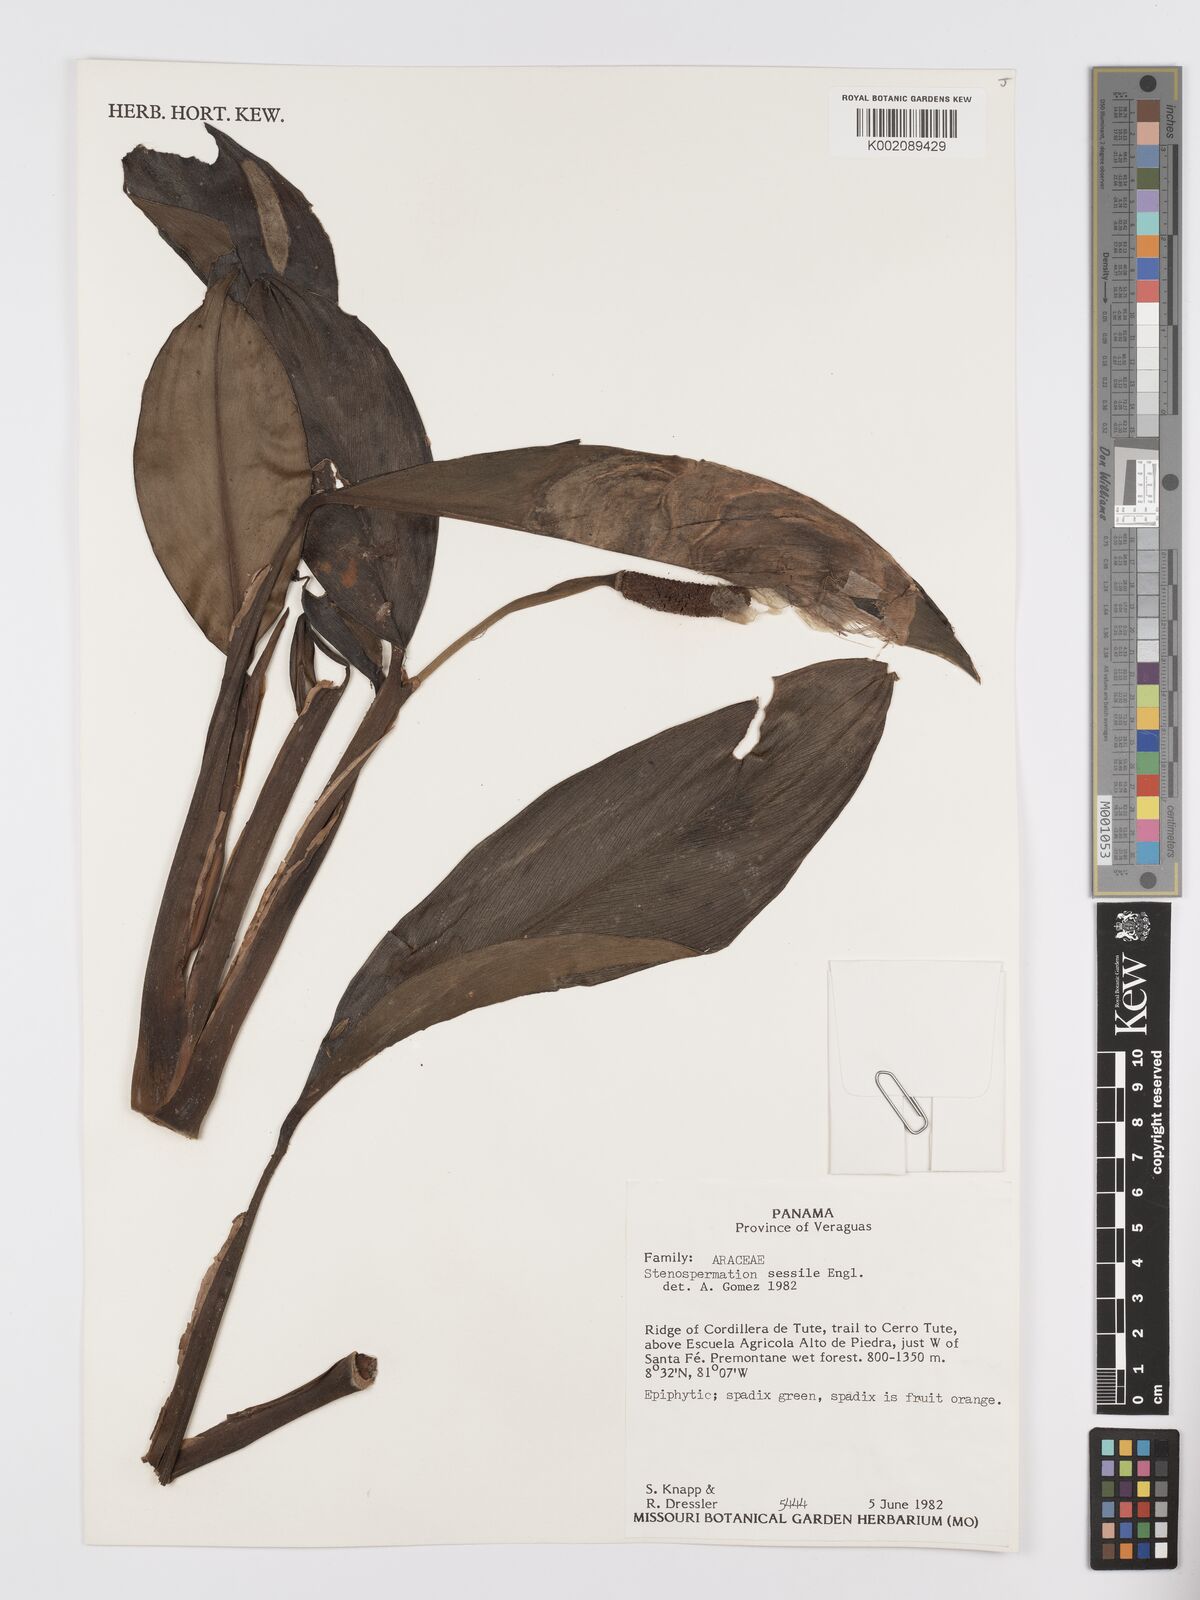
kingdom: Plantae
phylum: Tracheophyta
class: Liliopsida
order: Alismatales
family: Araceae
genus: Stenospermation
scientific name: Stenospermation sessile
